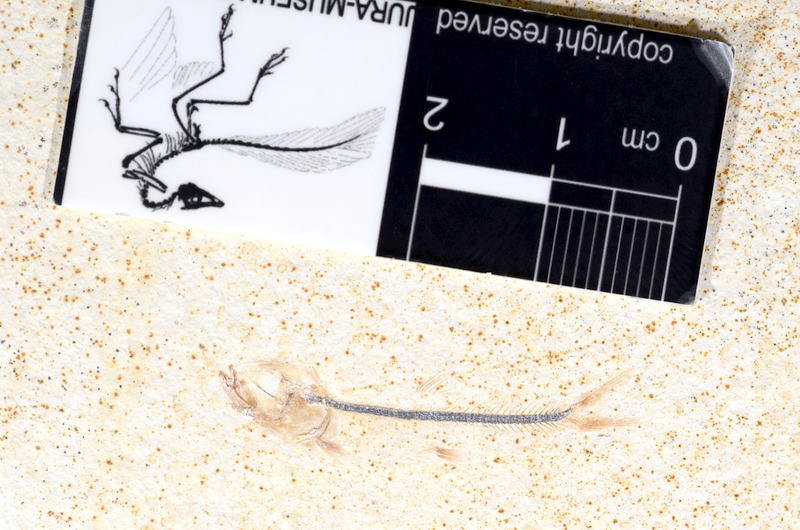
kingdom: Animalia
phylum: Chordata
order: Salmoniformes
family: Orthogonikleithridae
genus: Orthogonikleithrus
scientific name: Orthogonikleithrus hoelli
